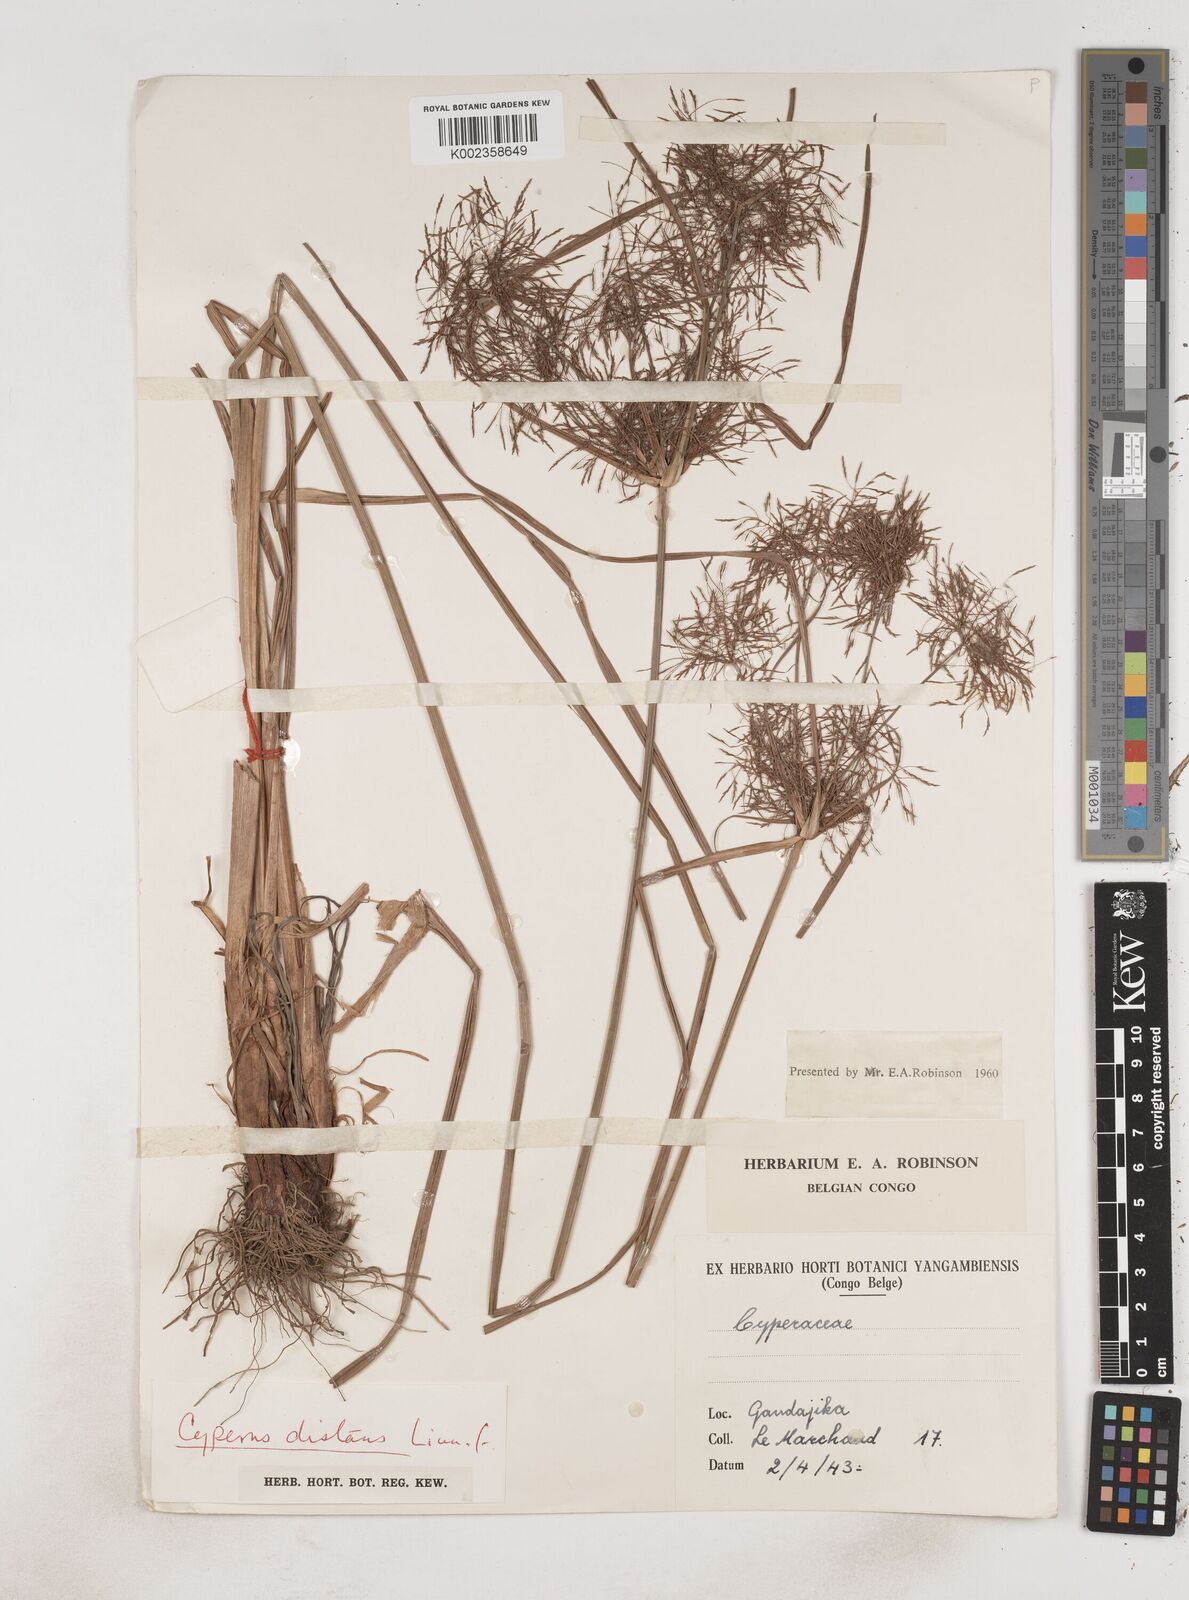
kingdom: Plantae
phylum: Tracheophyta
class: Liliopsida
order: Poales
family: Cyperaceae
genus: Cyperus
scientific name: Cyperus distans
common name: Slender cyperus
